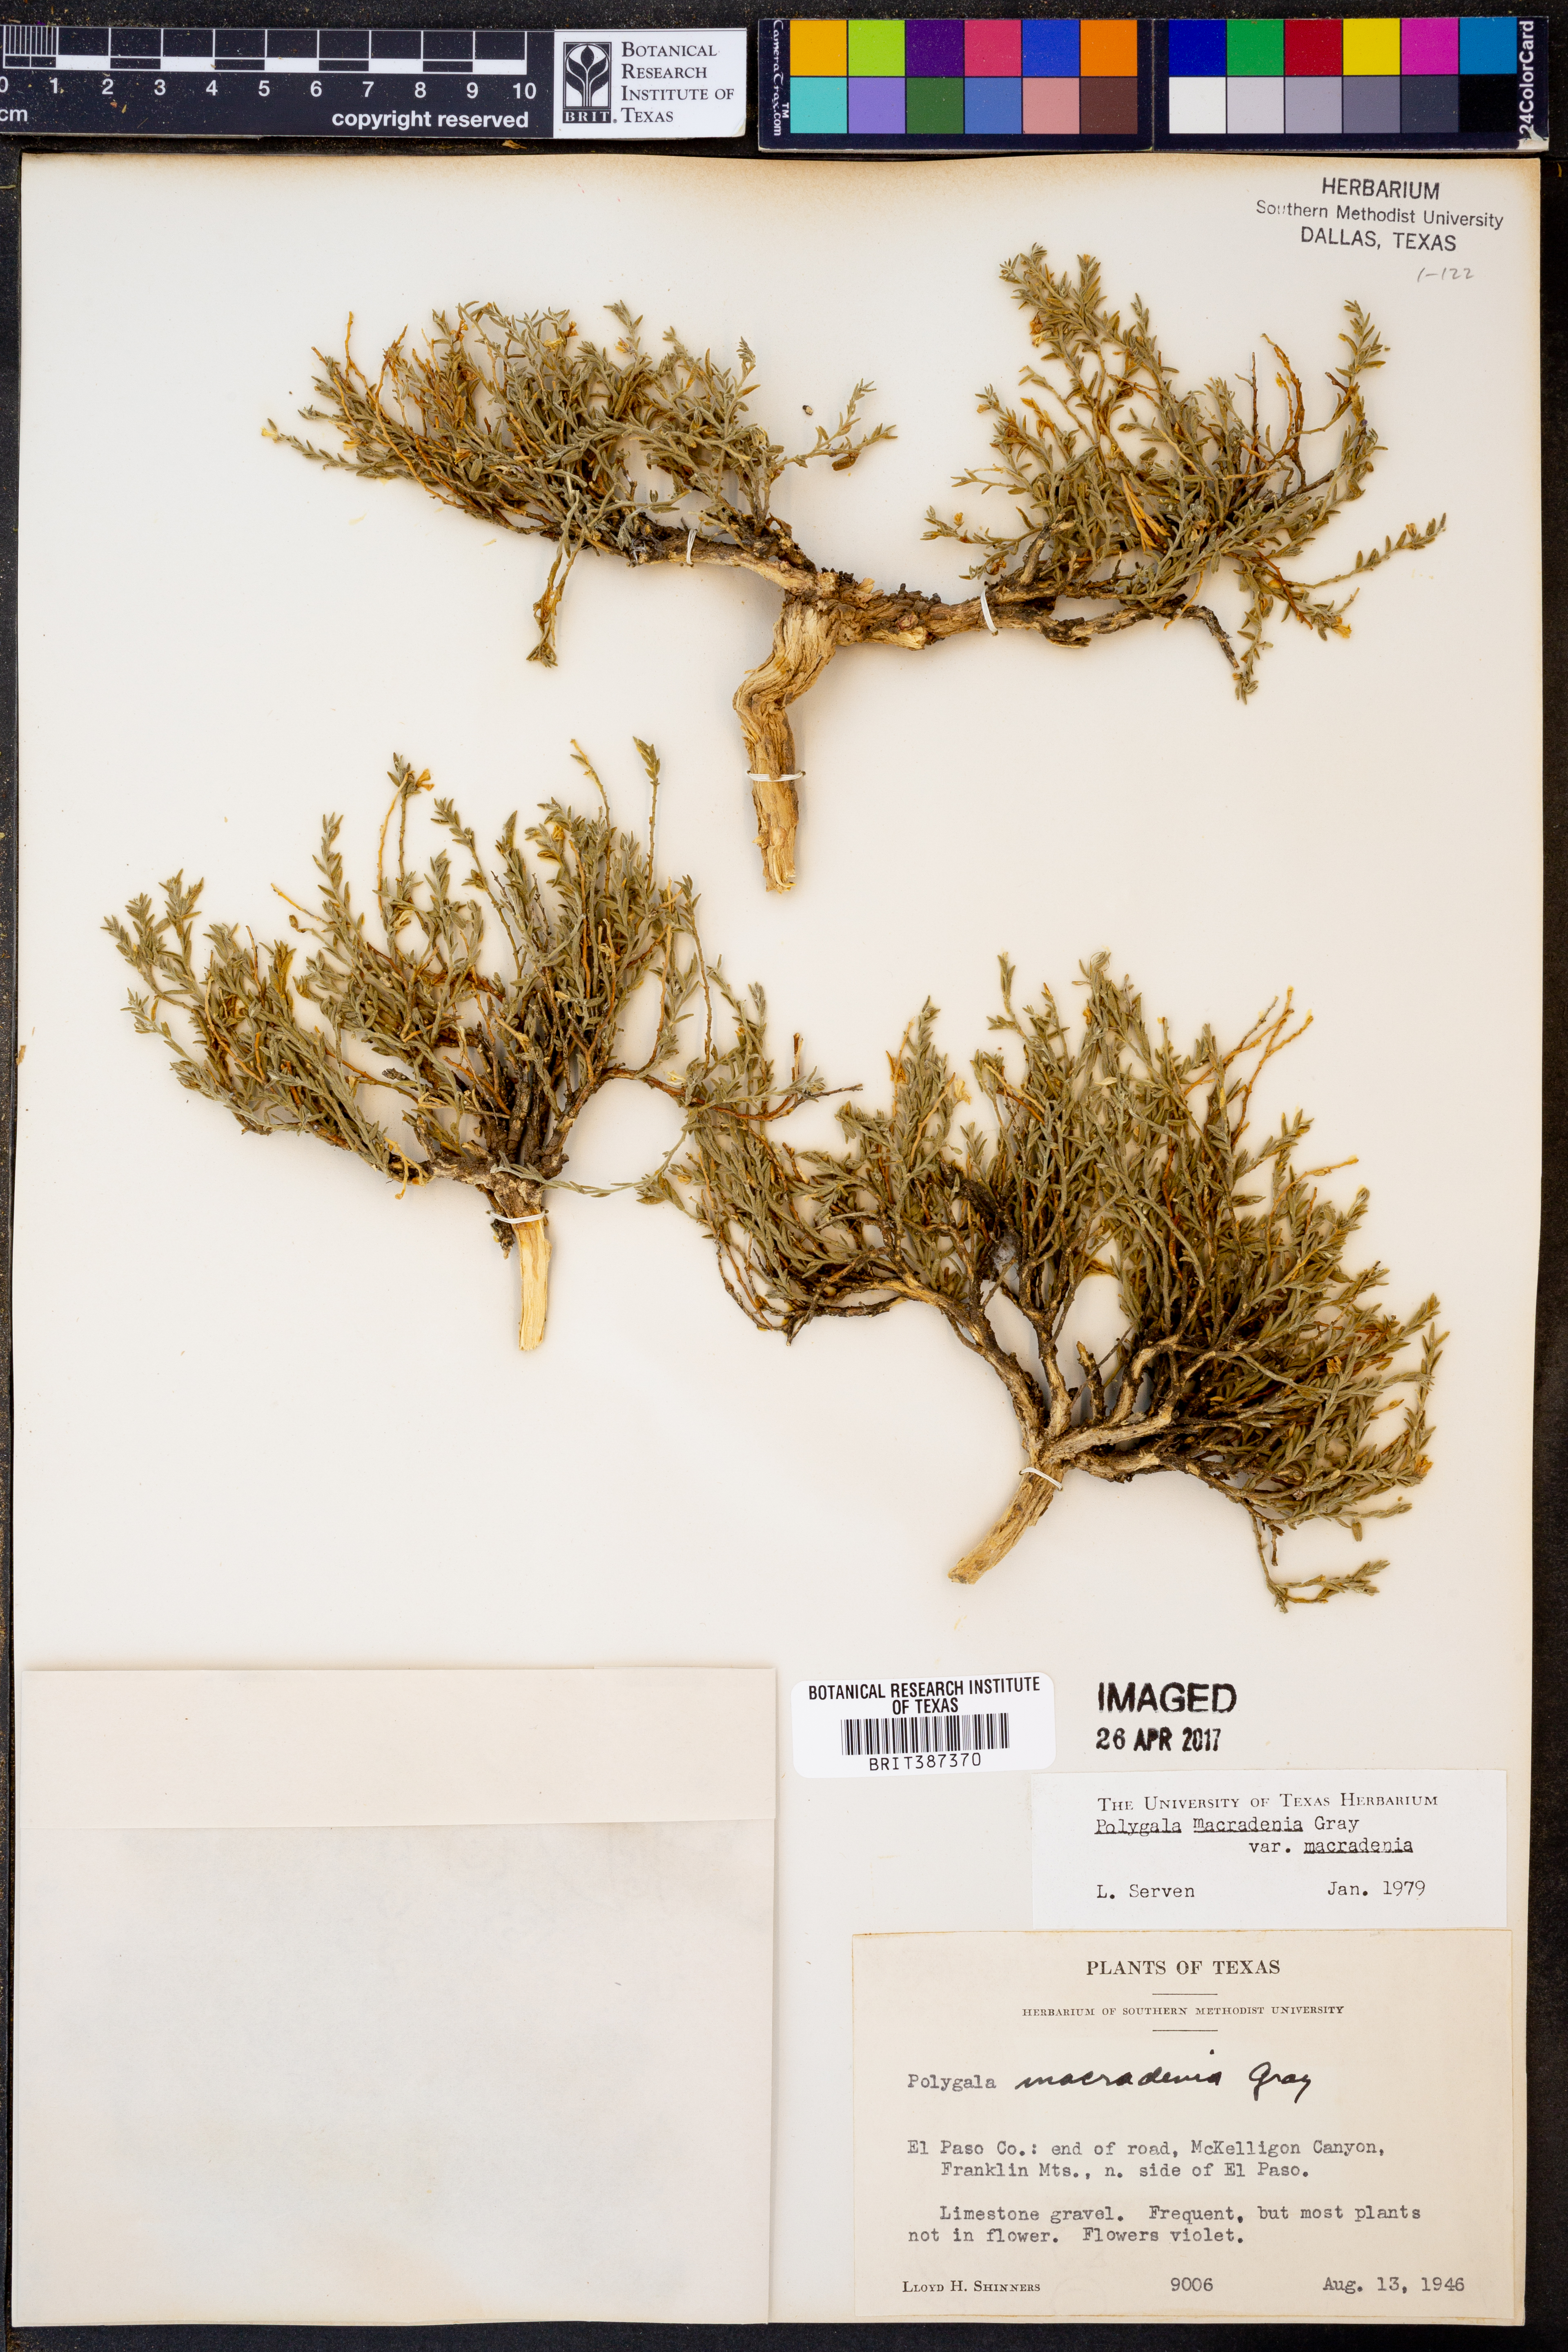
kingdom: Plantae
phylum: Tracheophyta
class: Magnoliopsida
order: Fabales
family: Polygalaceae
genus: Hebecarpa
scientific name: Hebecarpa macradenia
